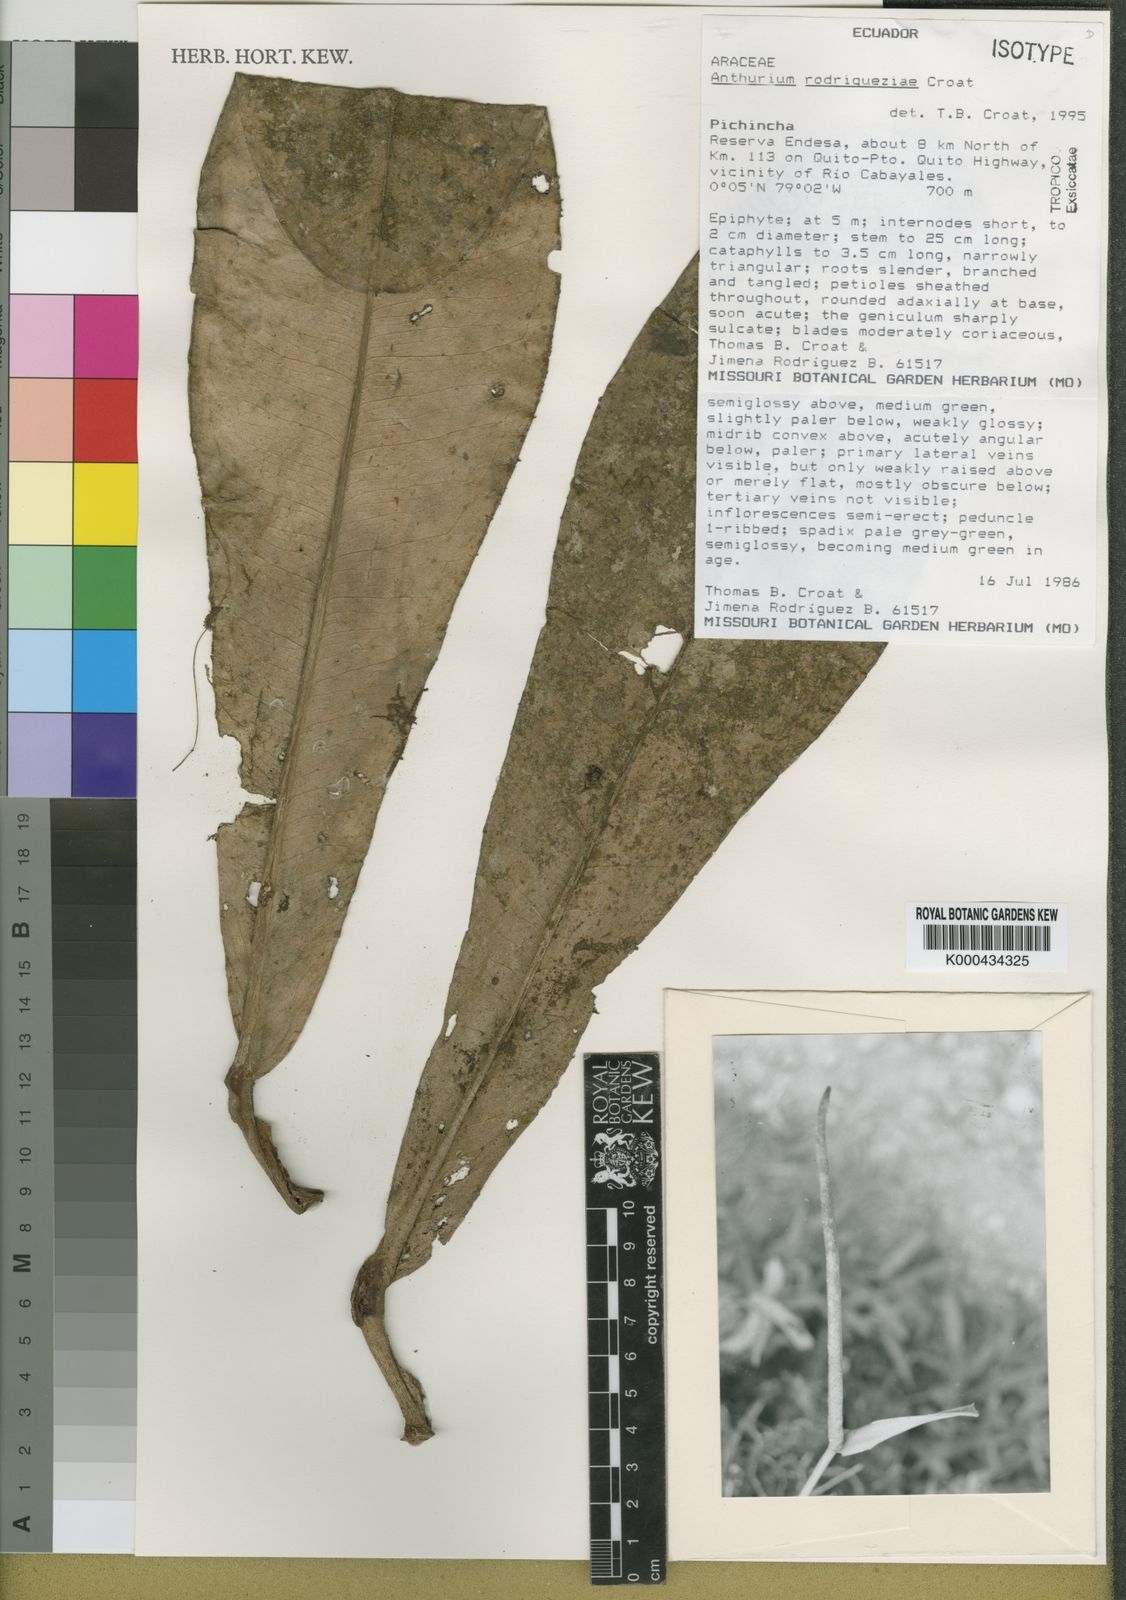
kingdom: Plantae
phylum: Tracheophyta
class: Liliopsida
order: Alismatales
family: Araceae
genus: Anthurium
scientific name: Anthurium rodrigueziae
